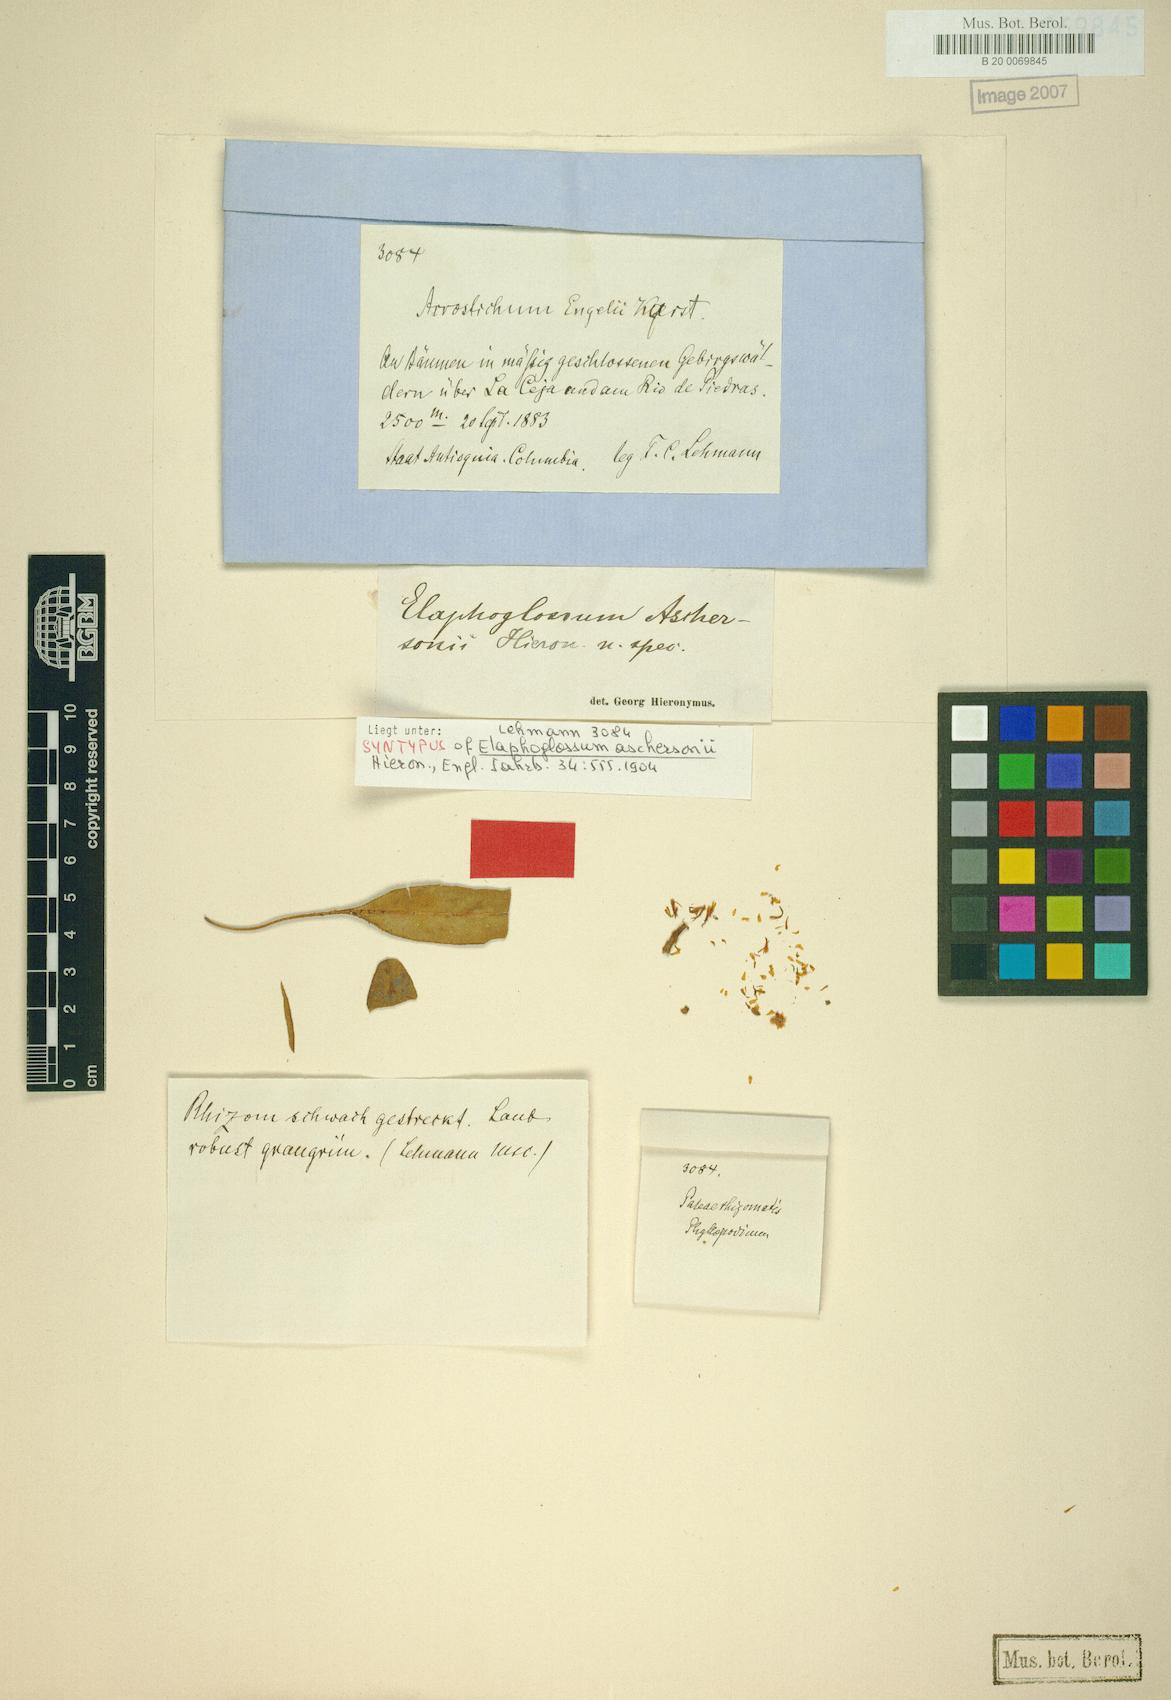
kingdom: Plantae
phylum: Tracheophyta
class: Polypodiopsida
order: Polypodiales
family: Dryopteridaceae
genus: Elaphoglossum
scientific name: Elaphoglossum aschersonii
